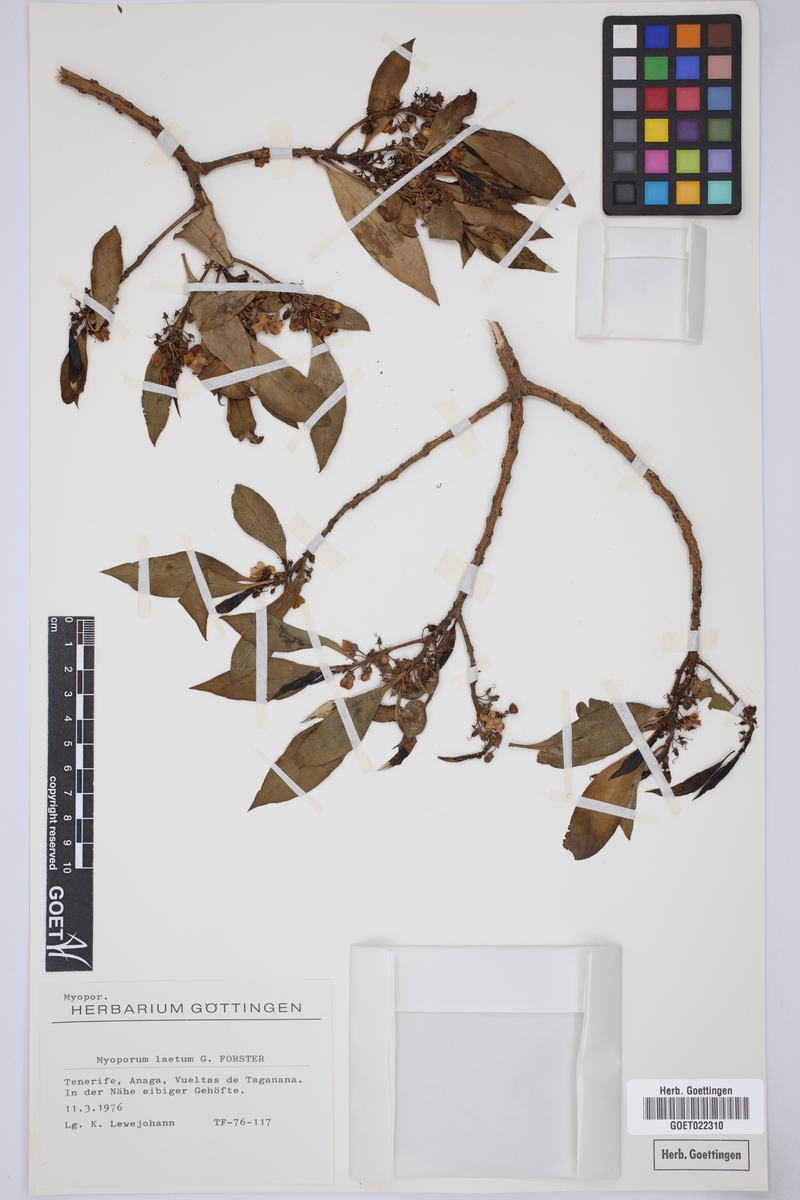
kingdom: Plantae
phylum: Tracheophyta
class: Magnoliopsida
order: Lamiales
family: Scrophulariaceae
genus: Myoporum
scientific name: Myoporum laetum
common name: Ngaio tree
